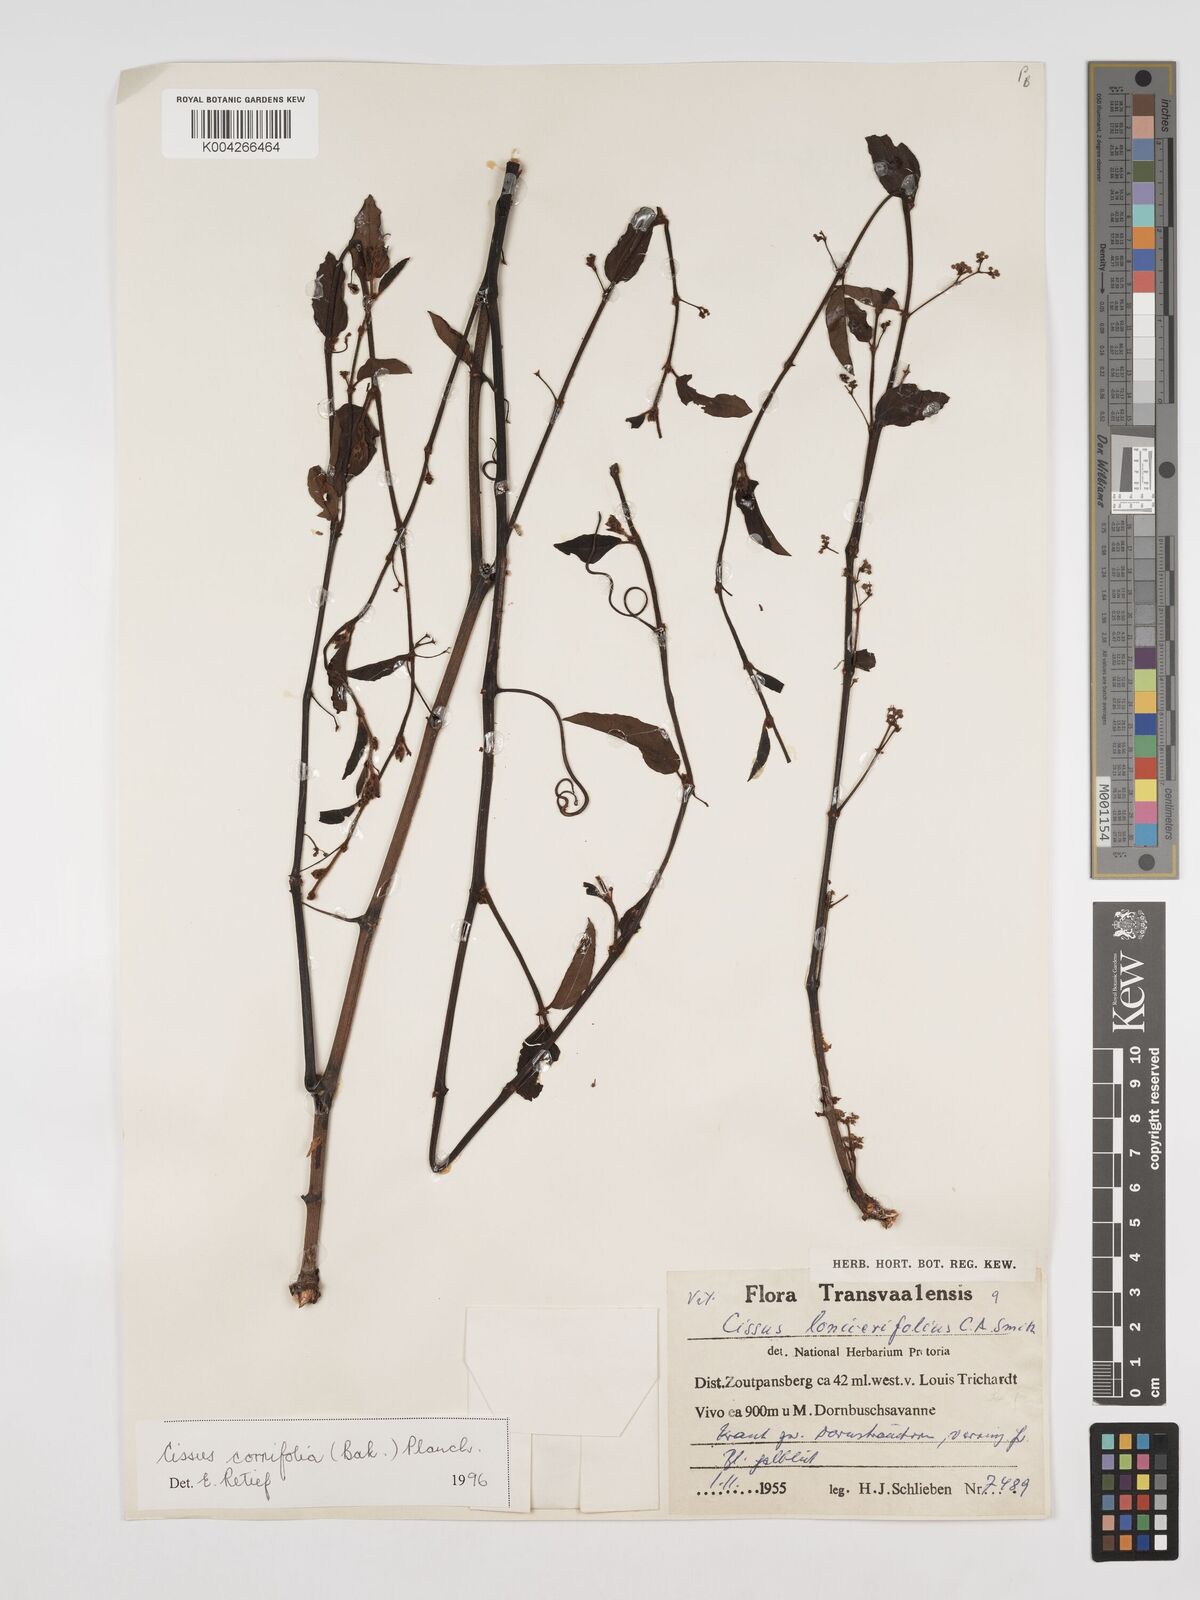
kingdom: Plantae
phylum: Tracheophyta
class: Magnoliopsida
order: Vitales
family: Vitaceae
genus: Cissus
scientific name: Cissus cornifolia
